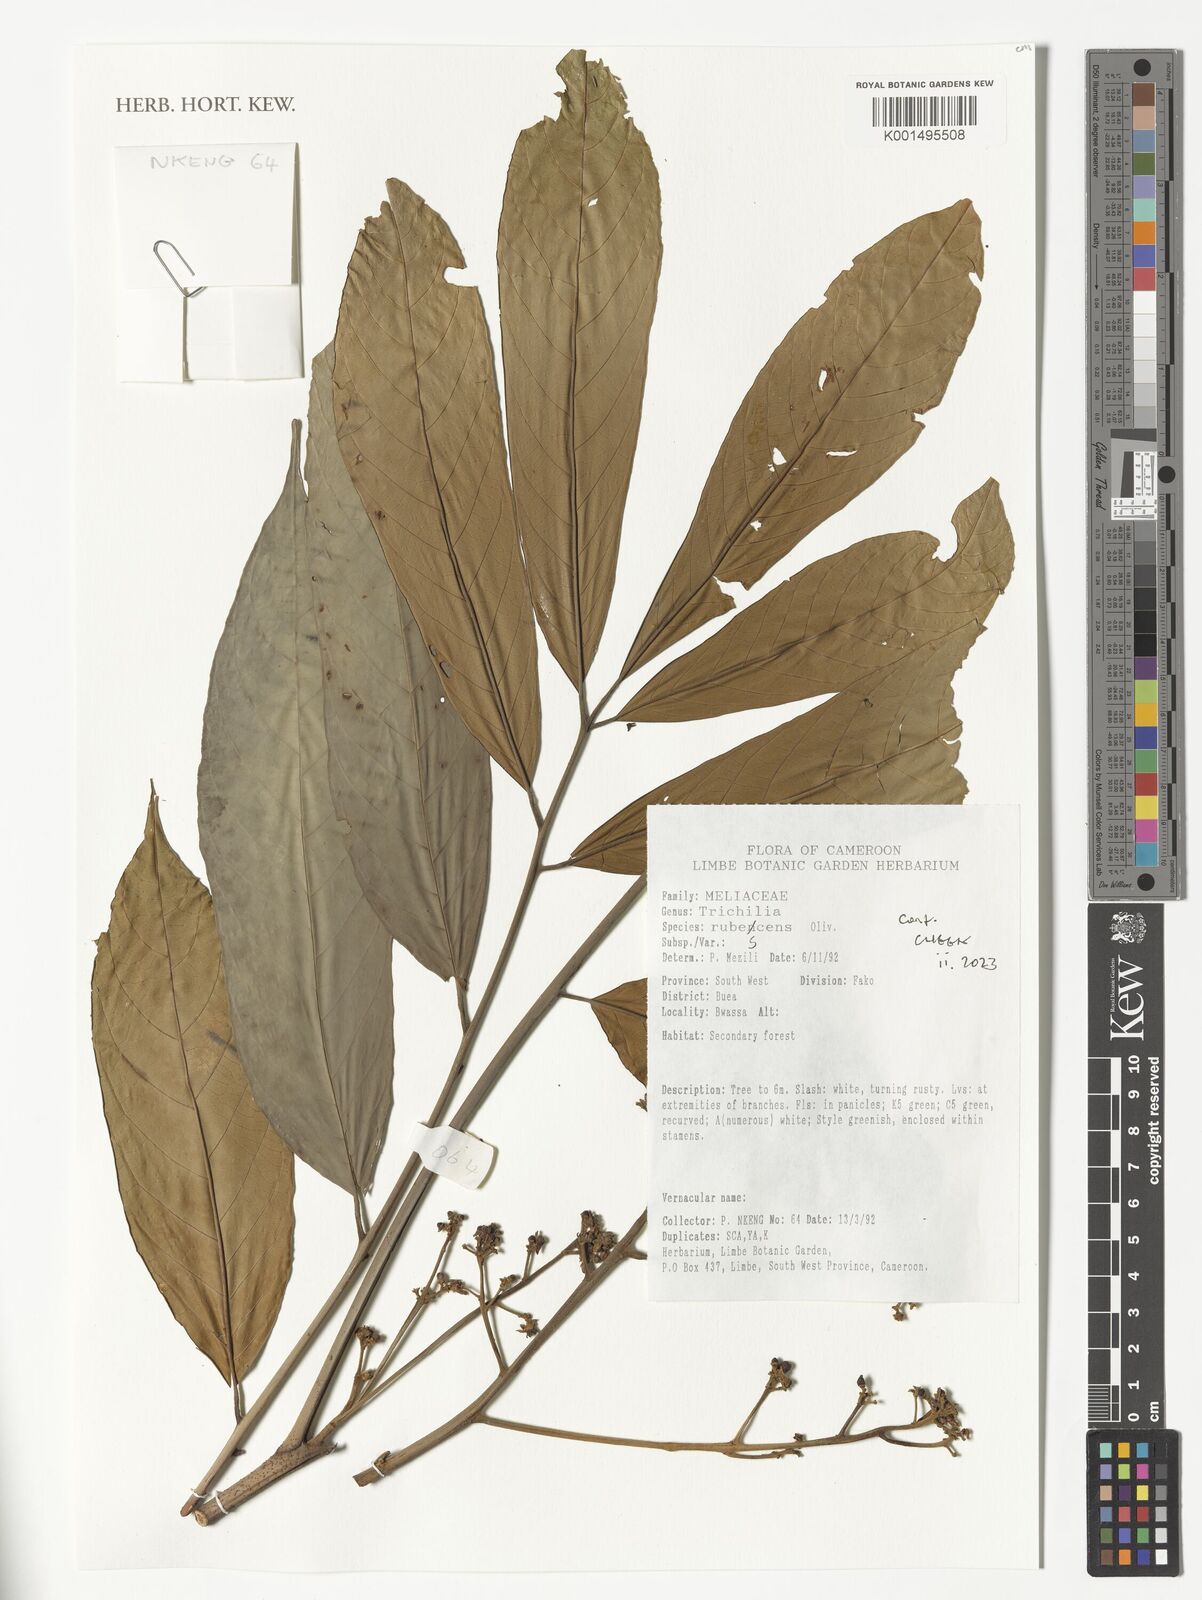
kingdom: Plantae
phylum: Tracheophyta
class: Magnoliopsida
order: Sapindales
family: Meliaceae
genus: Trichilia
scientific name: Trichilia rubescens
